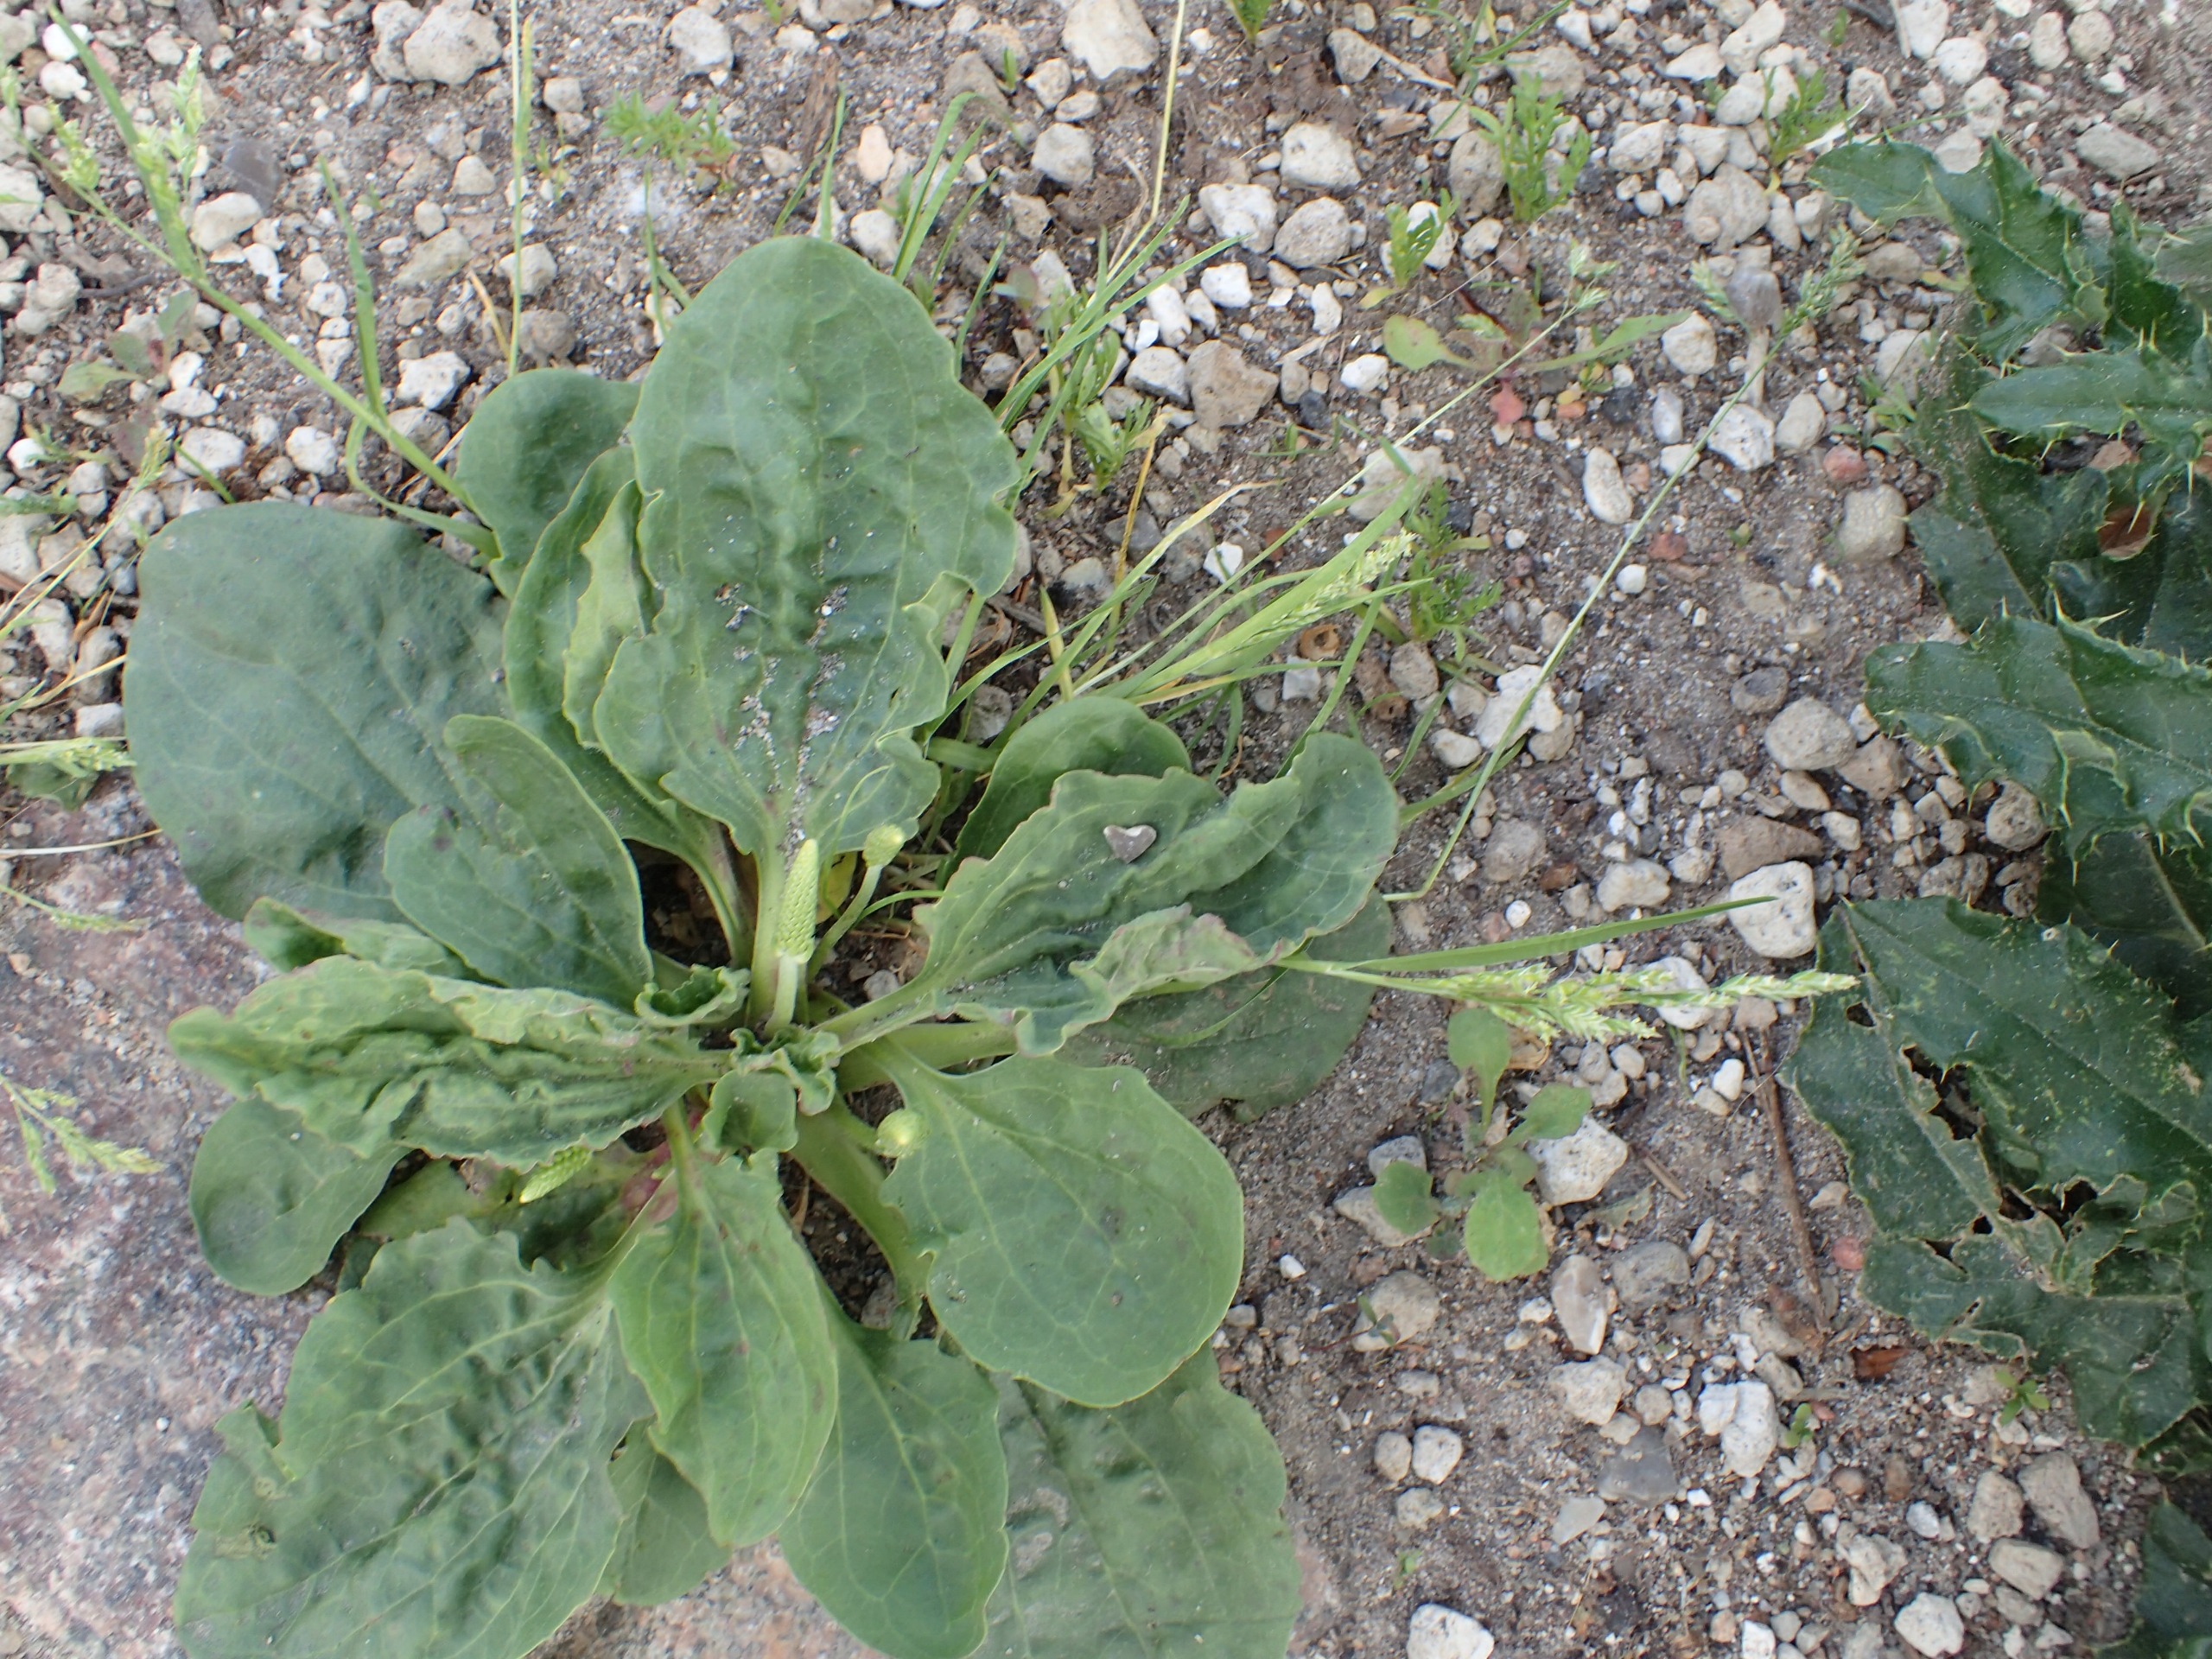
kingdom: Plantae
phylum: Tracheophyta
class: Magnoliopsida
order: Lamiales
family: Plantaginaceae
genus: Plantago
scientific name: Plantago major
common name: Glat vejbred
